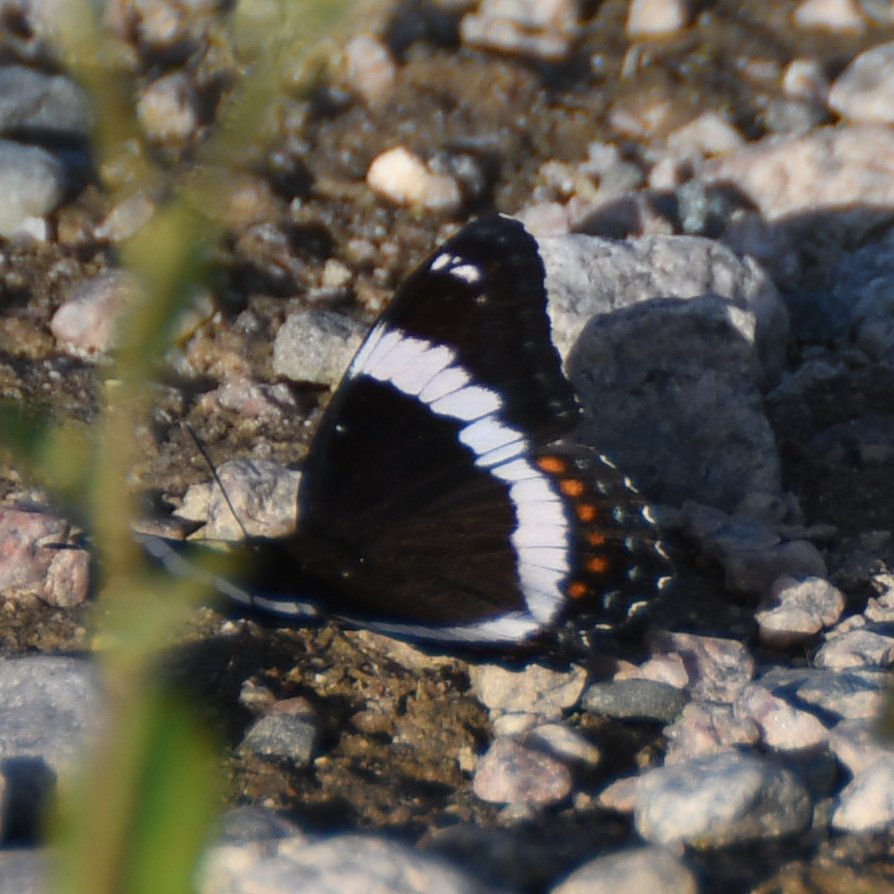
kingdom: Animalia
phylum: Arthropoda
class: Insecta
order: Lepidoptera
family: Nymphalidae
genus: Limenitis
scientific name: Limenitis arthemis
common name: Red-spotted Admiral
